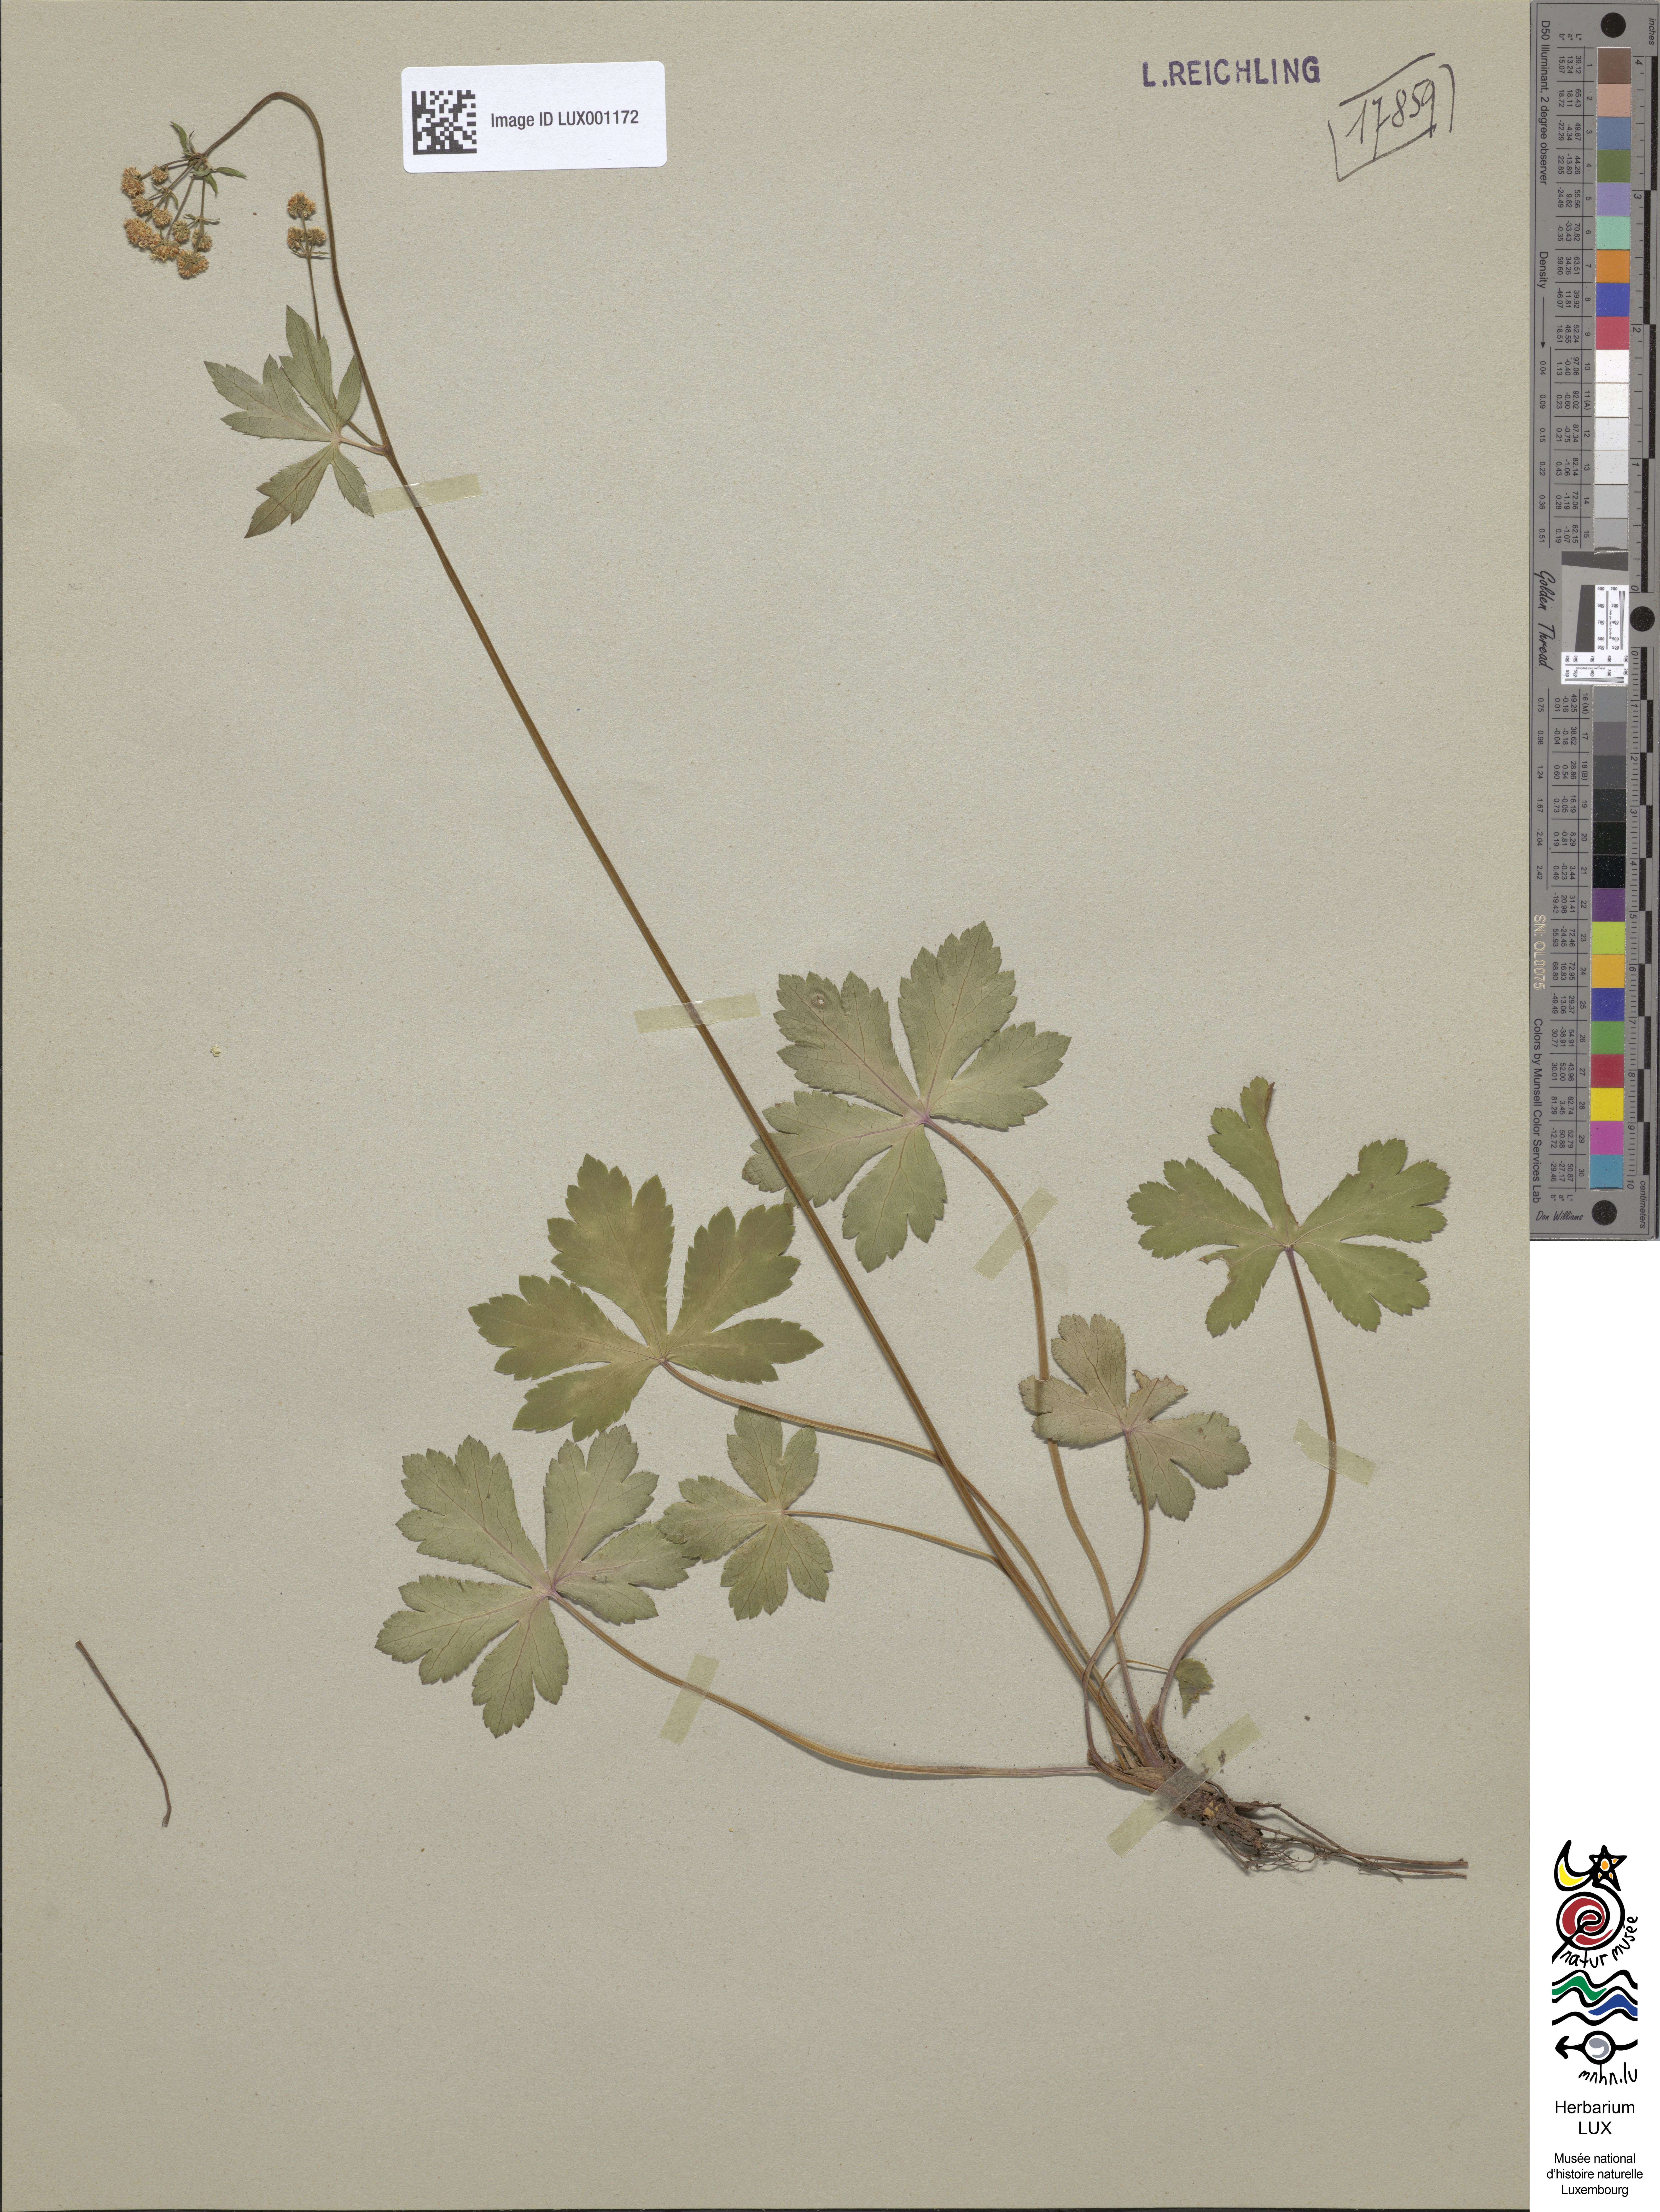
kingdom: Plantae
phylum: Tracheophyta
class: Magnoliopsida
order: Apiales
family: Apiaceae
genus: Sanicula
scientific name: Sanicula europaea
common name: Sanicle
